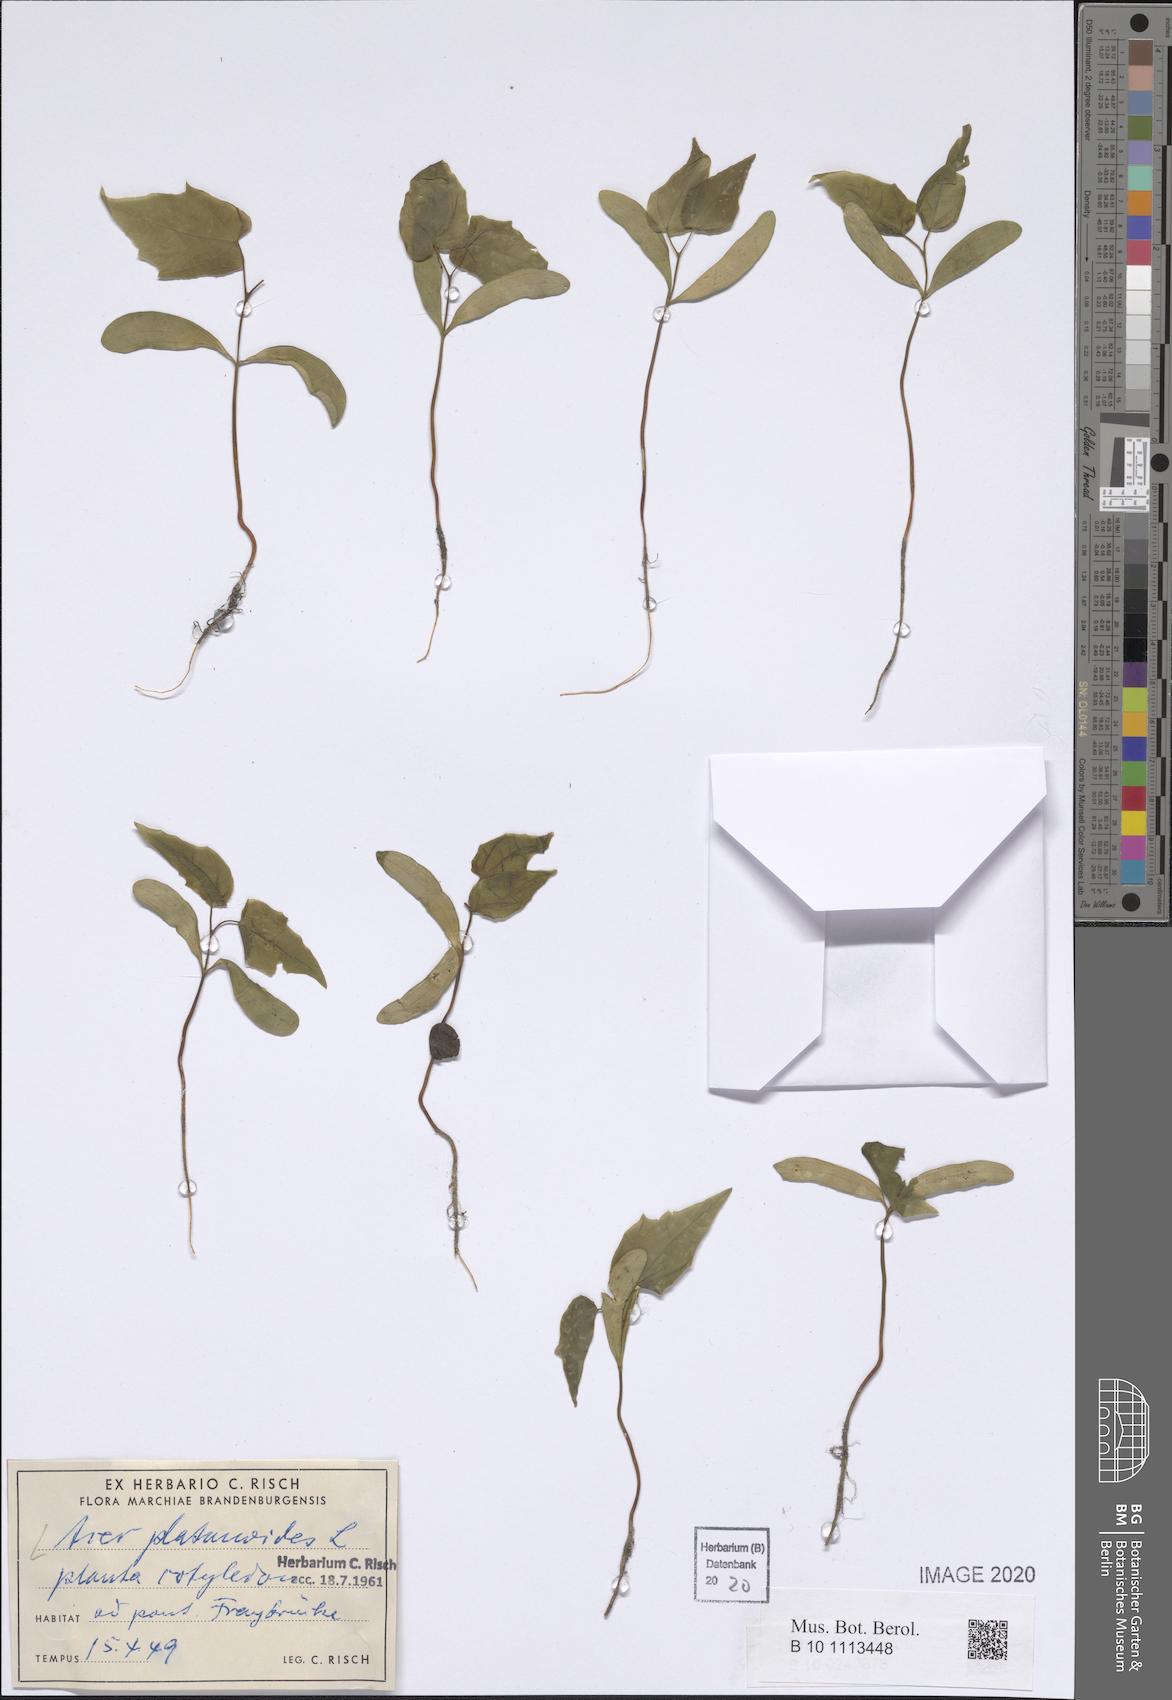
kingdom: Plantae
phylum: Tracheophyta
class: Magnoliopsida
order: Sapindales
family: Sapindaceae
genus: Acer
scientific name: Acer platanoides
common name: Norway maple
